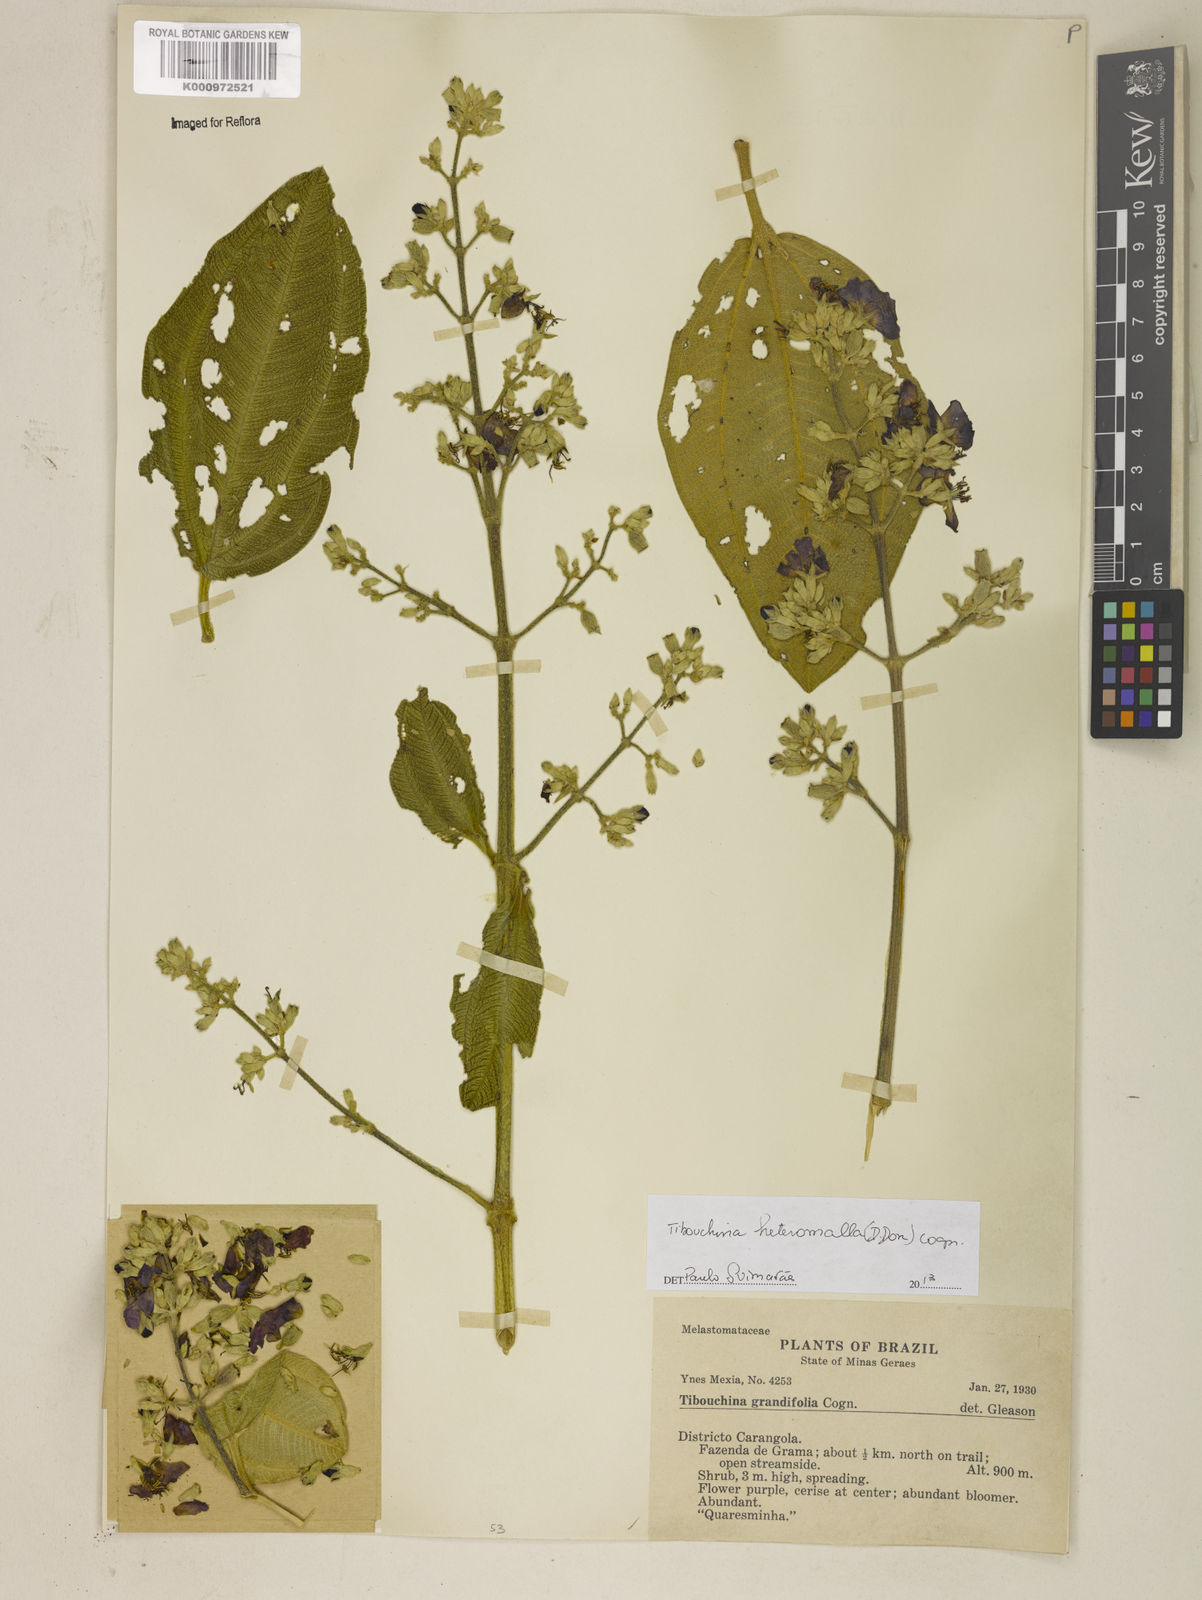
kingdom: Plantae
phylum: Tracheophyta
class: Magnoliopsida
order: Myrtales
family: Melastomataceae
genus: Pleroma
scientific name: Pleroma heteromallum
